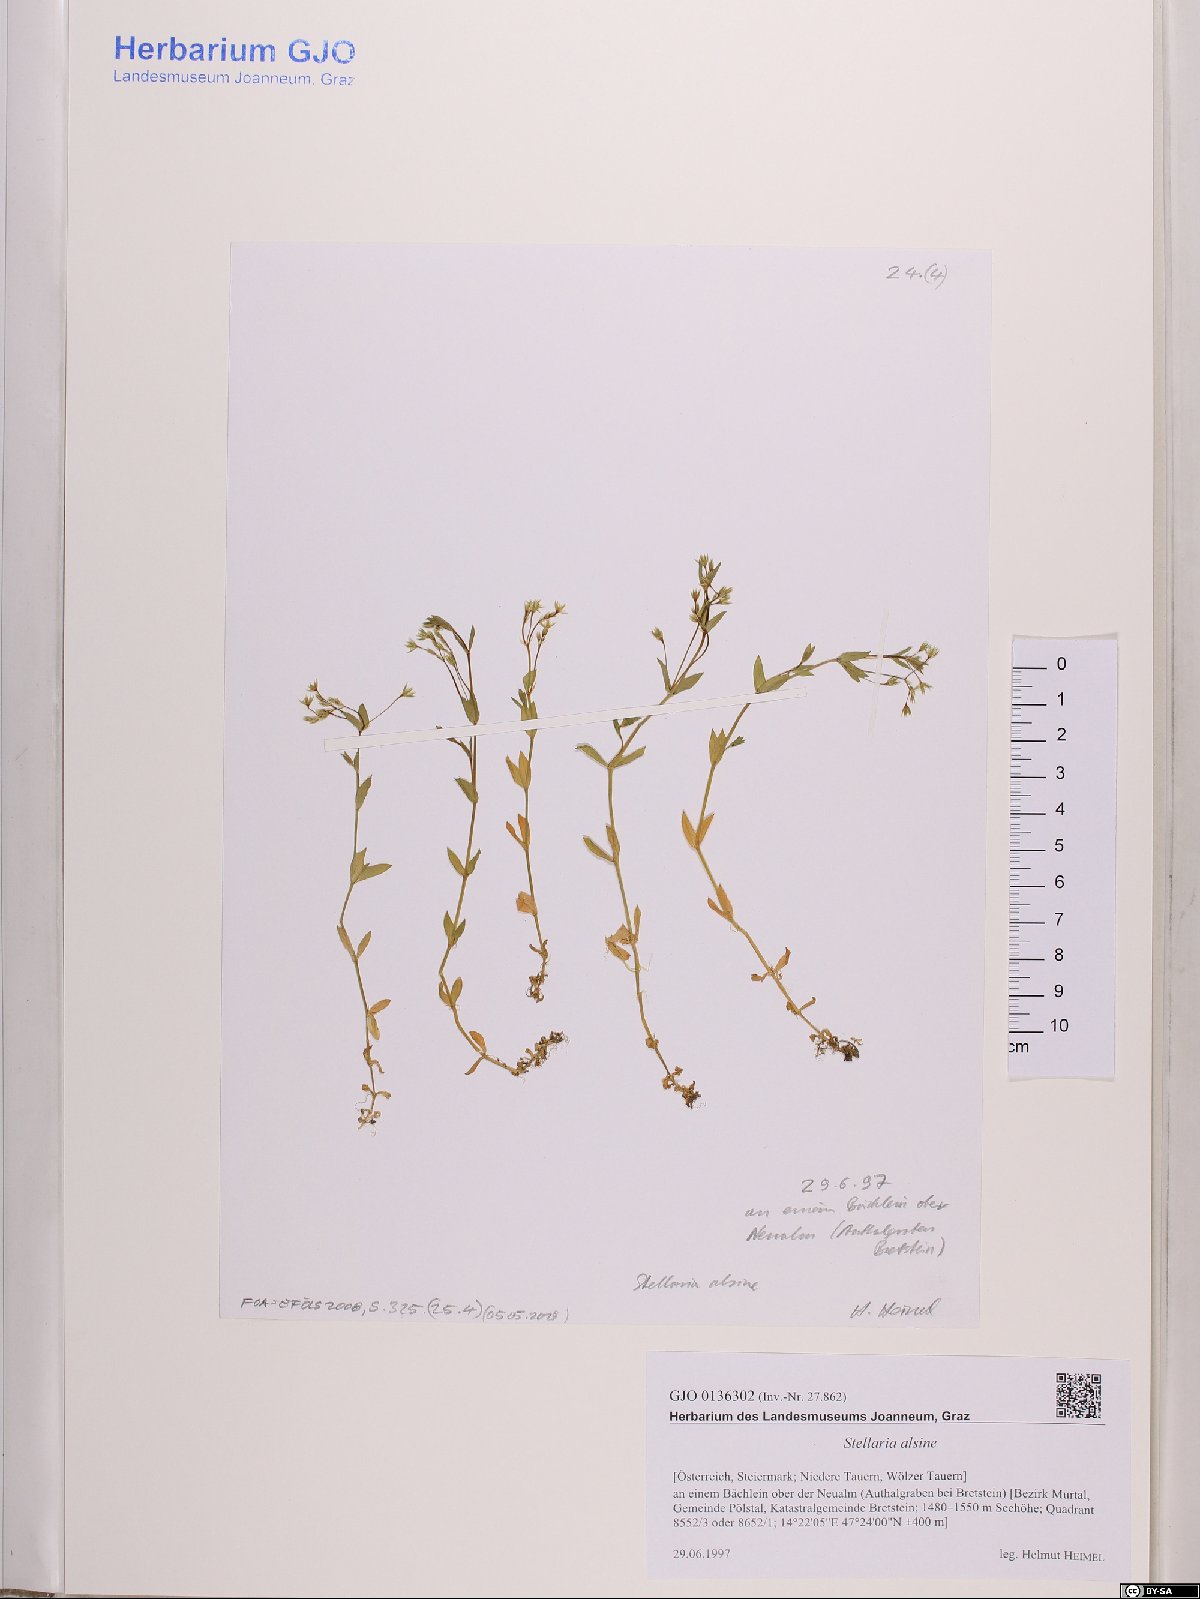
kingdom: Plantae
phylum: Tracheophyta
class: Magnoliopsida
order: Caryophyllales
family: Caryophyllaceae
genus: Stellaria
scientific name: Stellaria alsine
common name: Bog stitchwort
